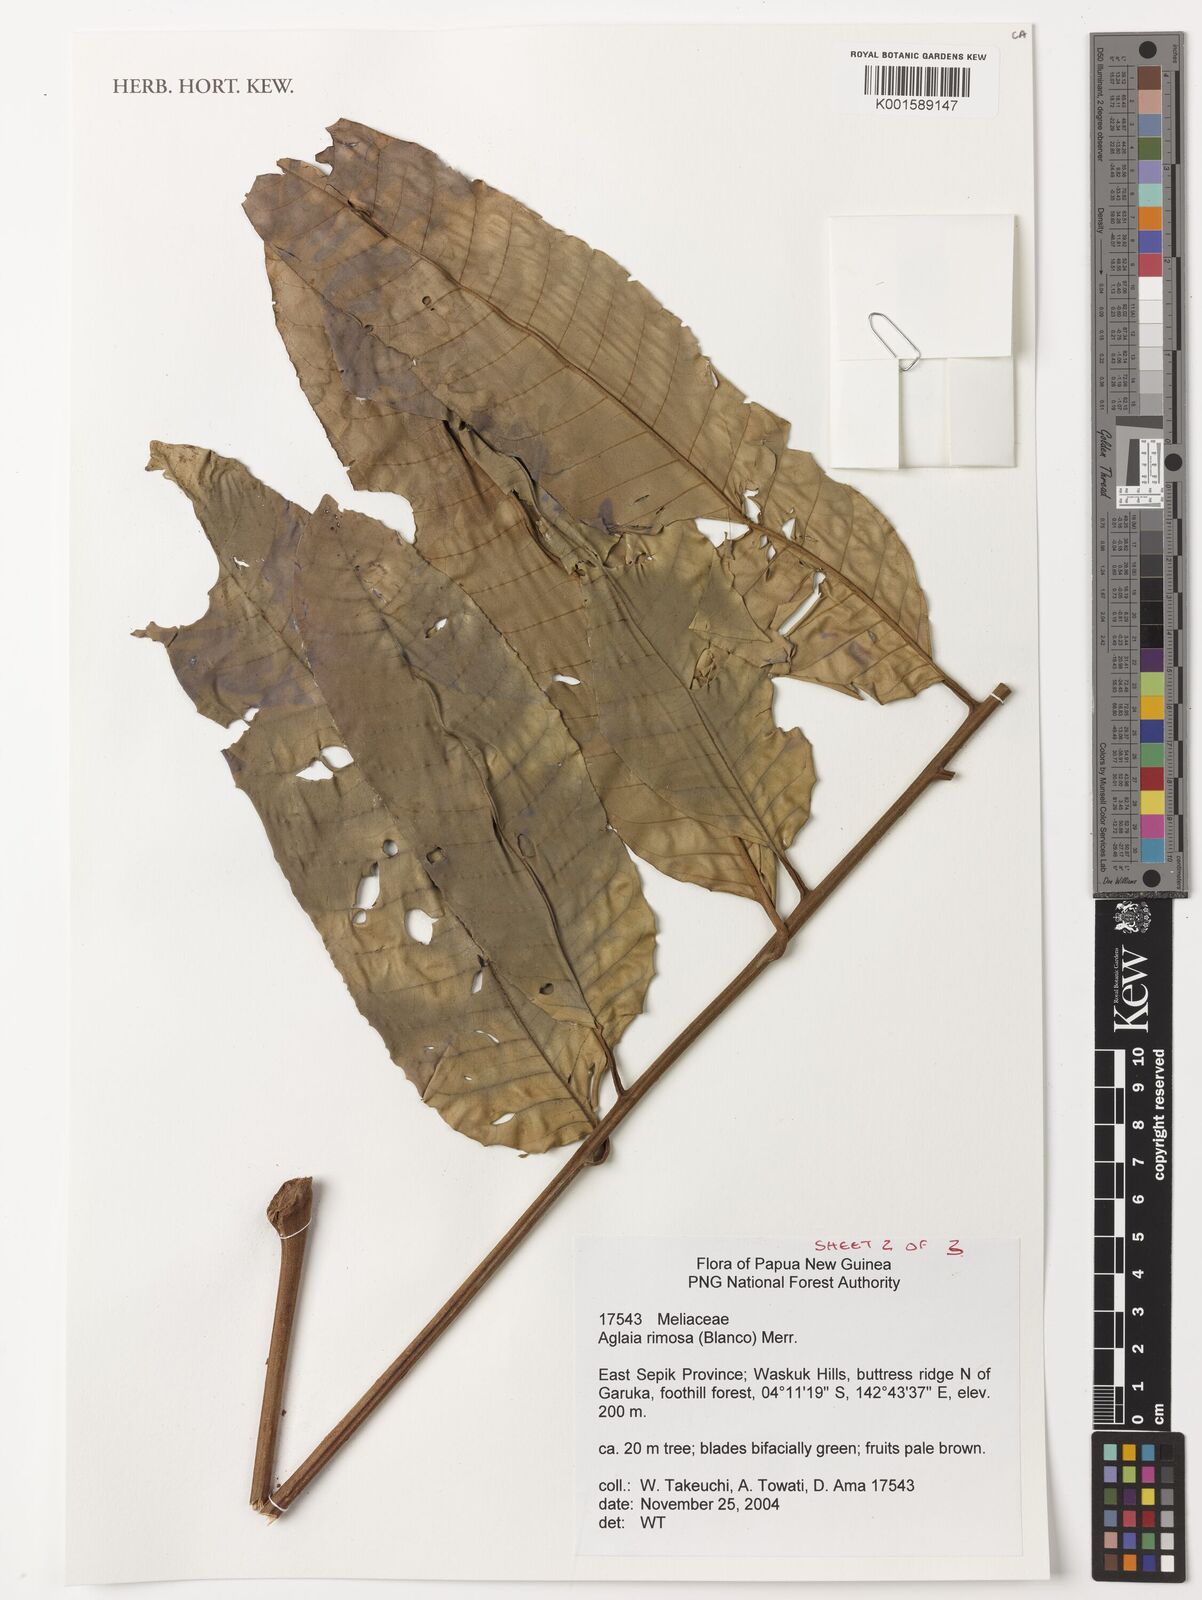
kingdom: Plantae
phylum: Tracheophyta
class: Magnoliopsida
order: Sapindales
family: Meliaceae
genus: Aglaia
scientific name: Aglaia rimosa
